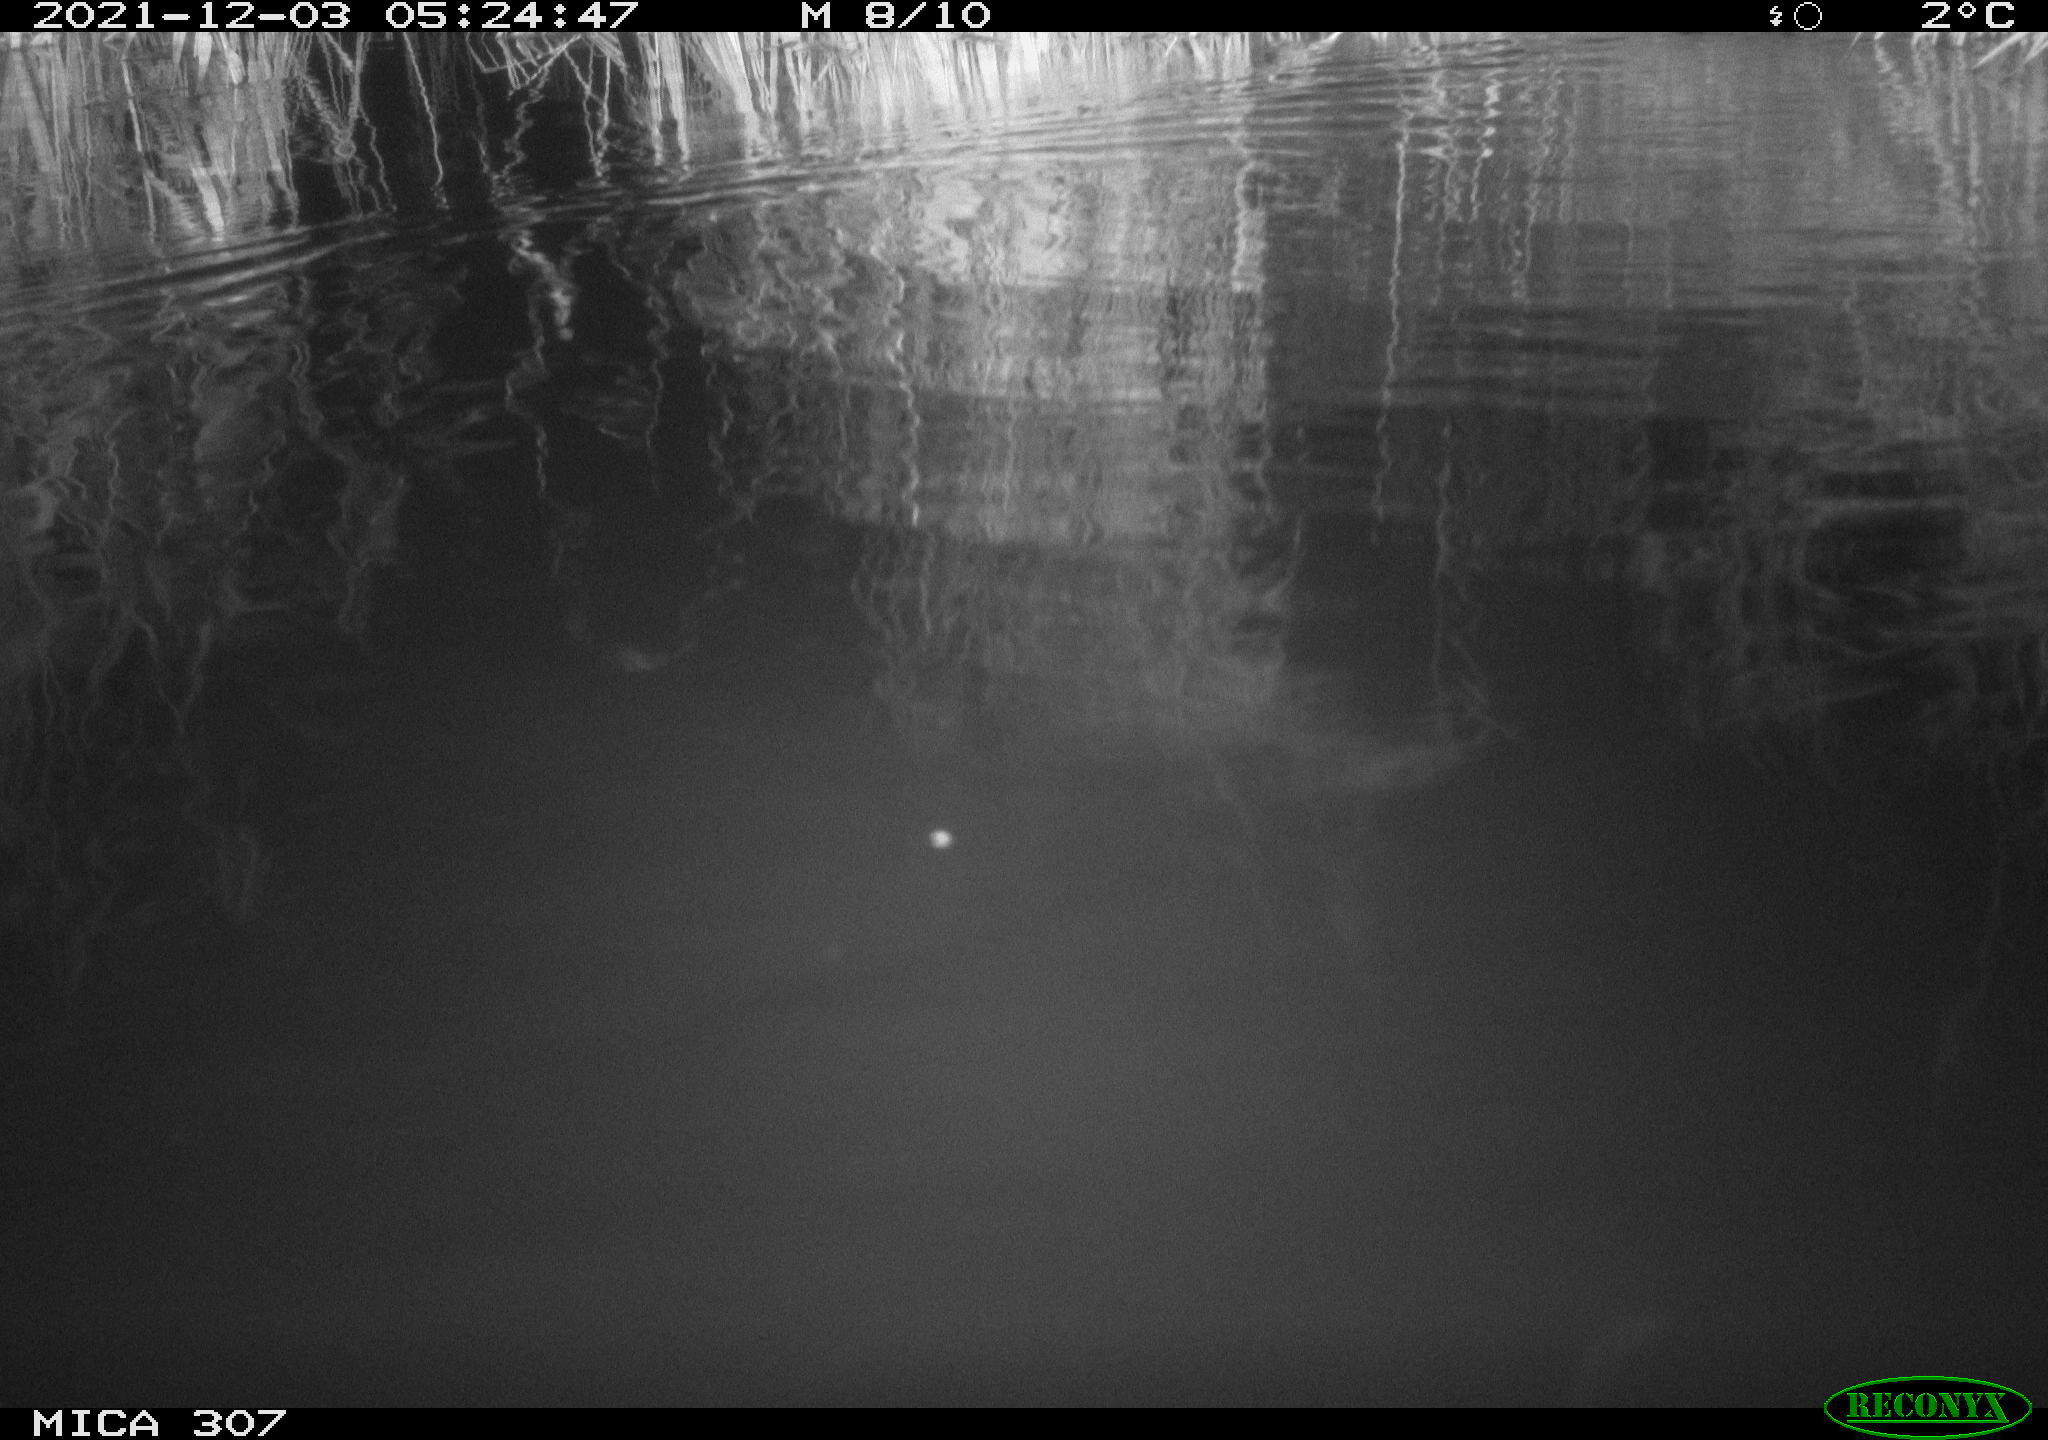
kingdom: Animalia
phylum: Chordata
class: Mammalia
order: Rodentia
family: Cricetidae
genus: Ondatra
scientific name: Ondatra zibethicus
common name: Muskrat
